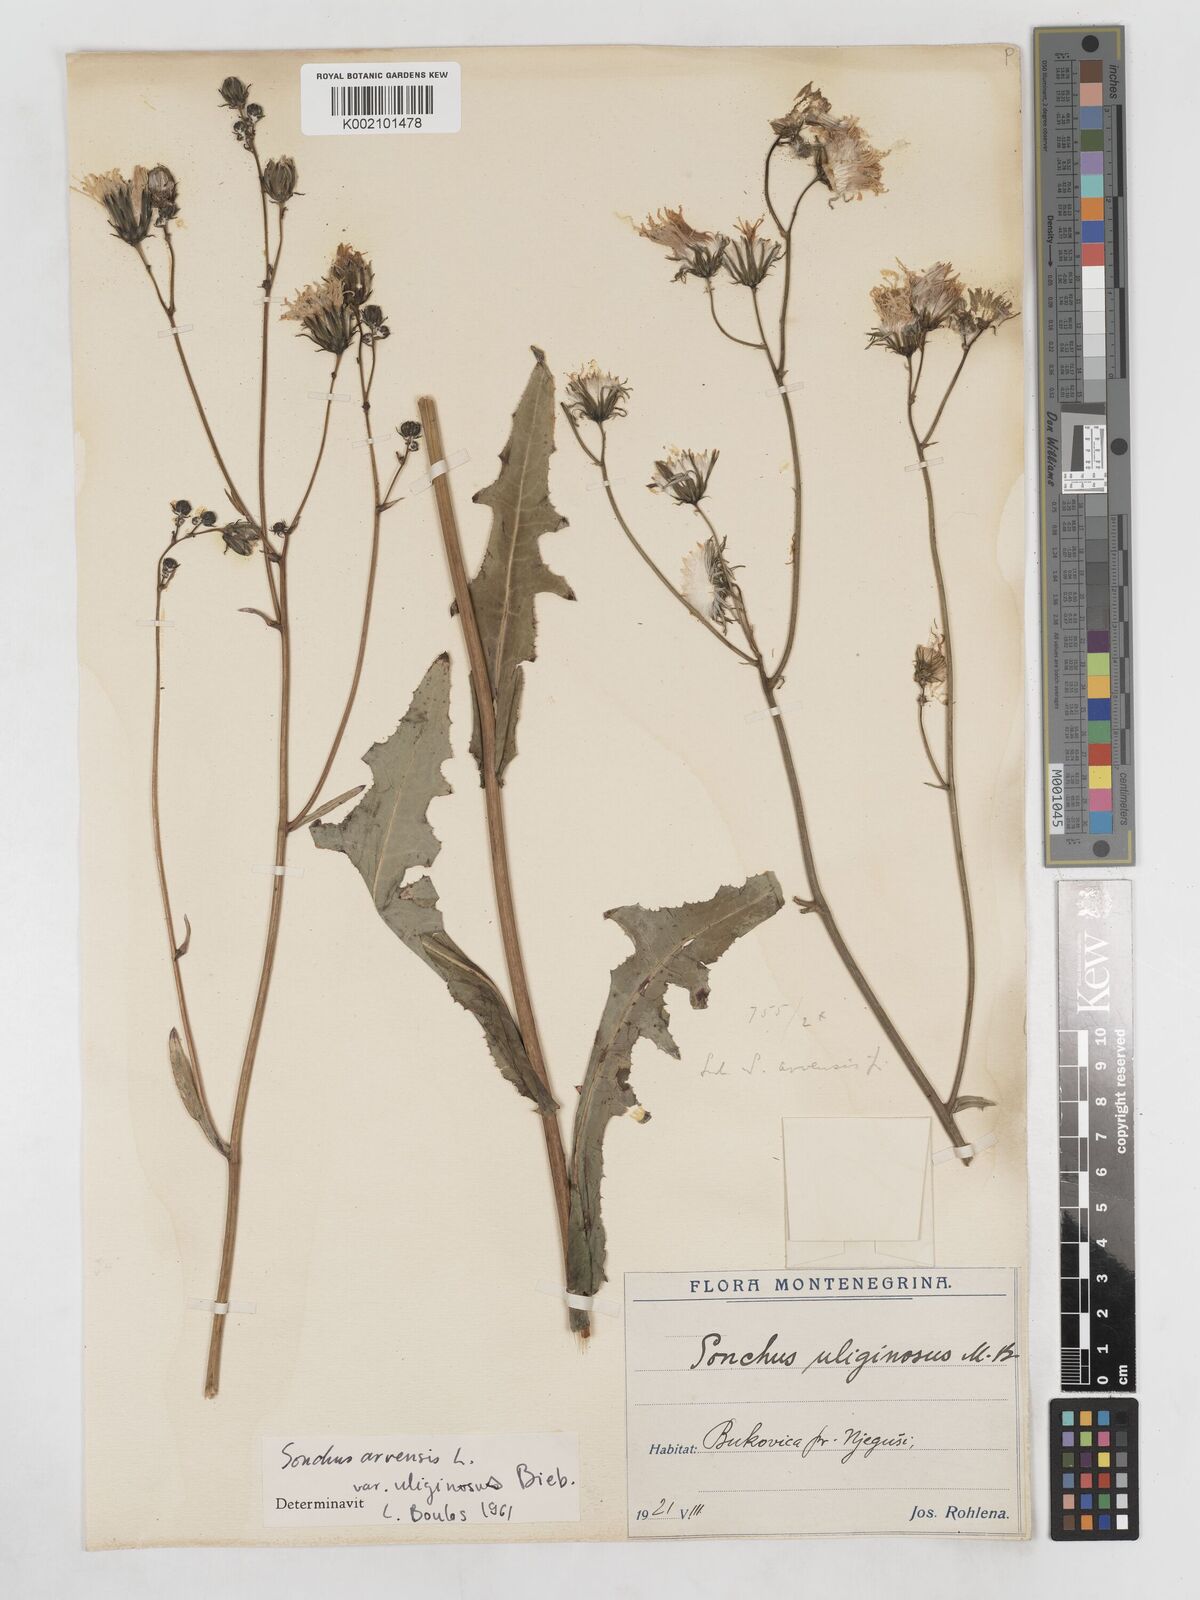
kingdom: Plantae
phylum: Tracheophyta
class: Magnoliopsida
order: Asterales
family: Asteraceae
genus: Sonchus
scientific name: Sonchus arvensis
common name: Perennial sow-thistle
